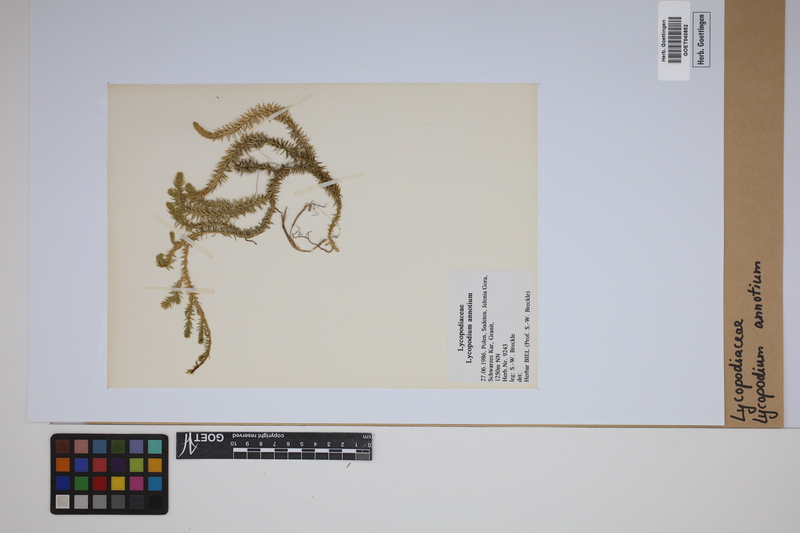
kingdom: Plantae
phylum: Tracheophyta
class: Lycopodiopsida
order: Lycopodiales
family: Lycopodiaceae
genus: Spinulum
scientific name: Spinulum annotinum
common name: Interrupted club-moss
